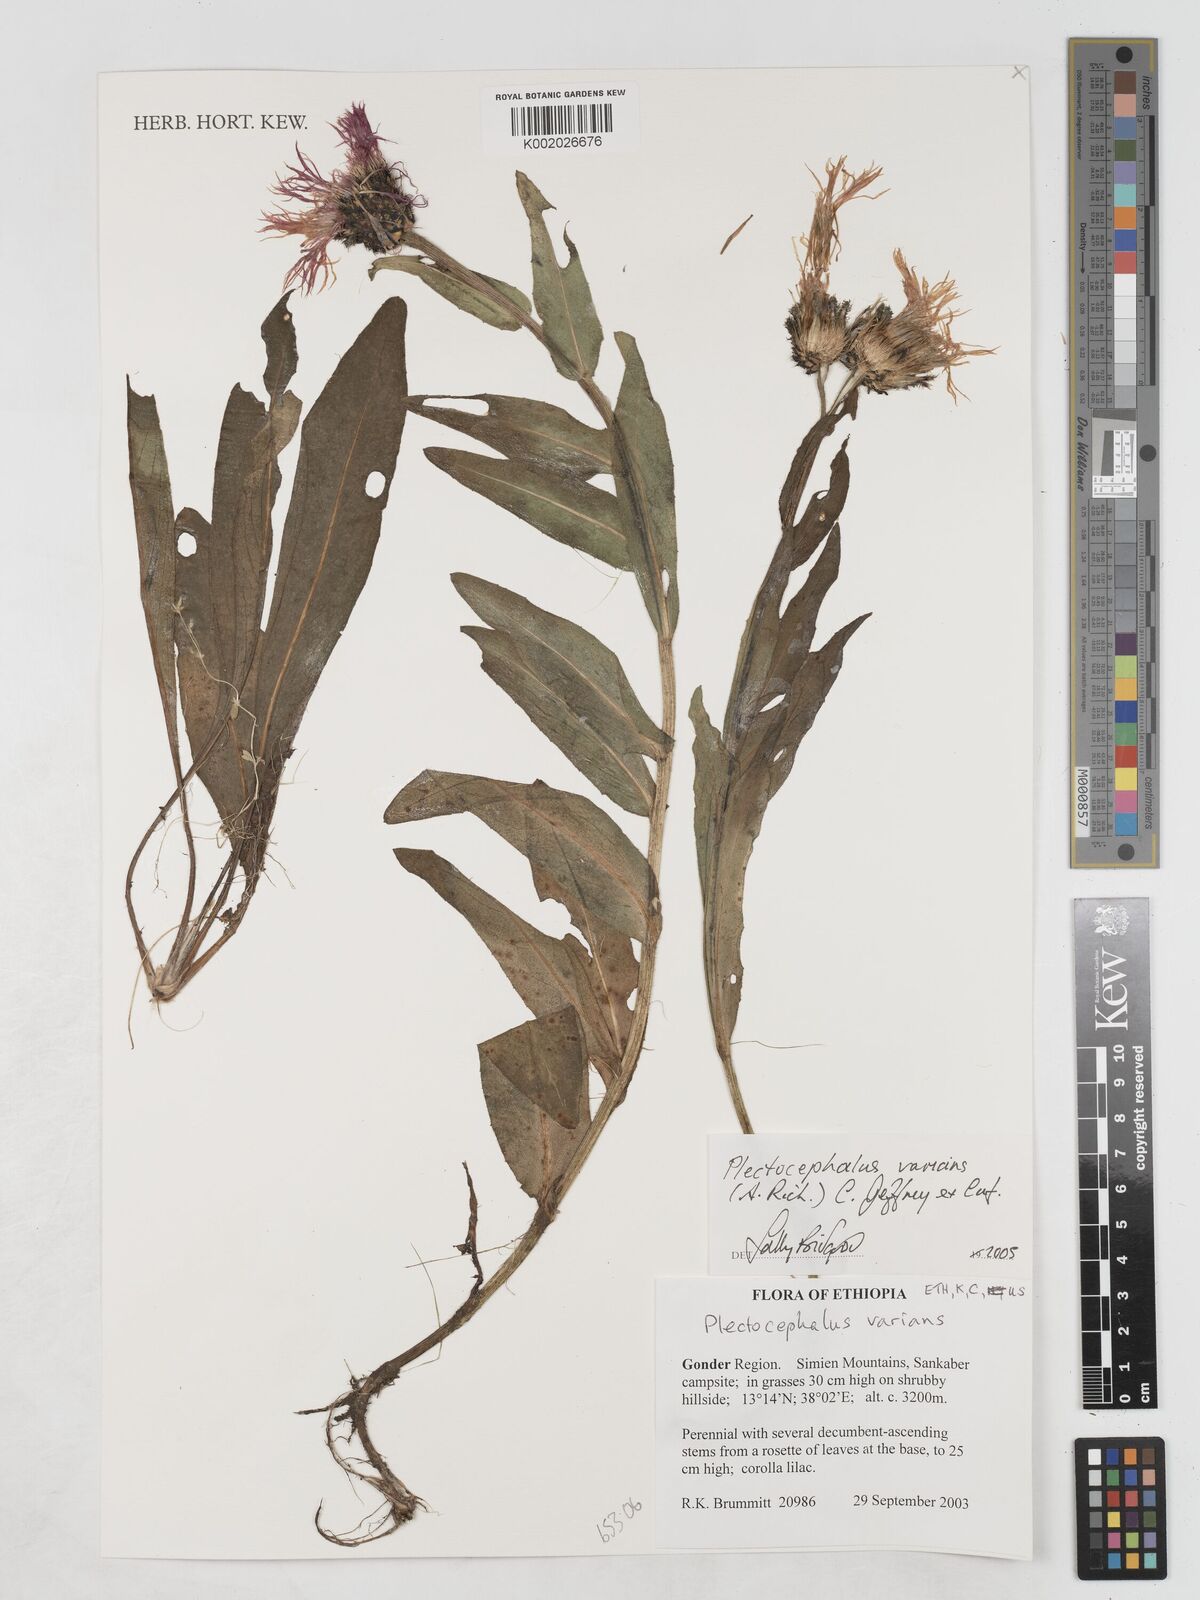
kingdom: Plantae
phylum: Tracheophyta
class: Magnoliopsida
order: Asterales
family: Asteraceae
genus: Plectocephalus
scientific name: Plectocephalus varians
